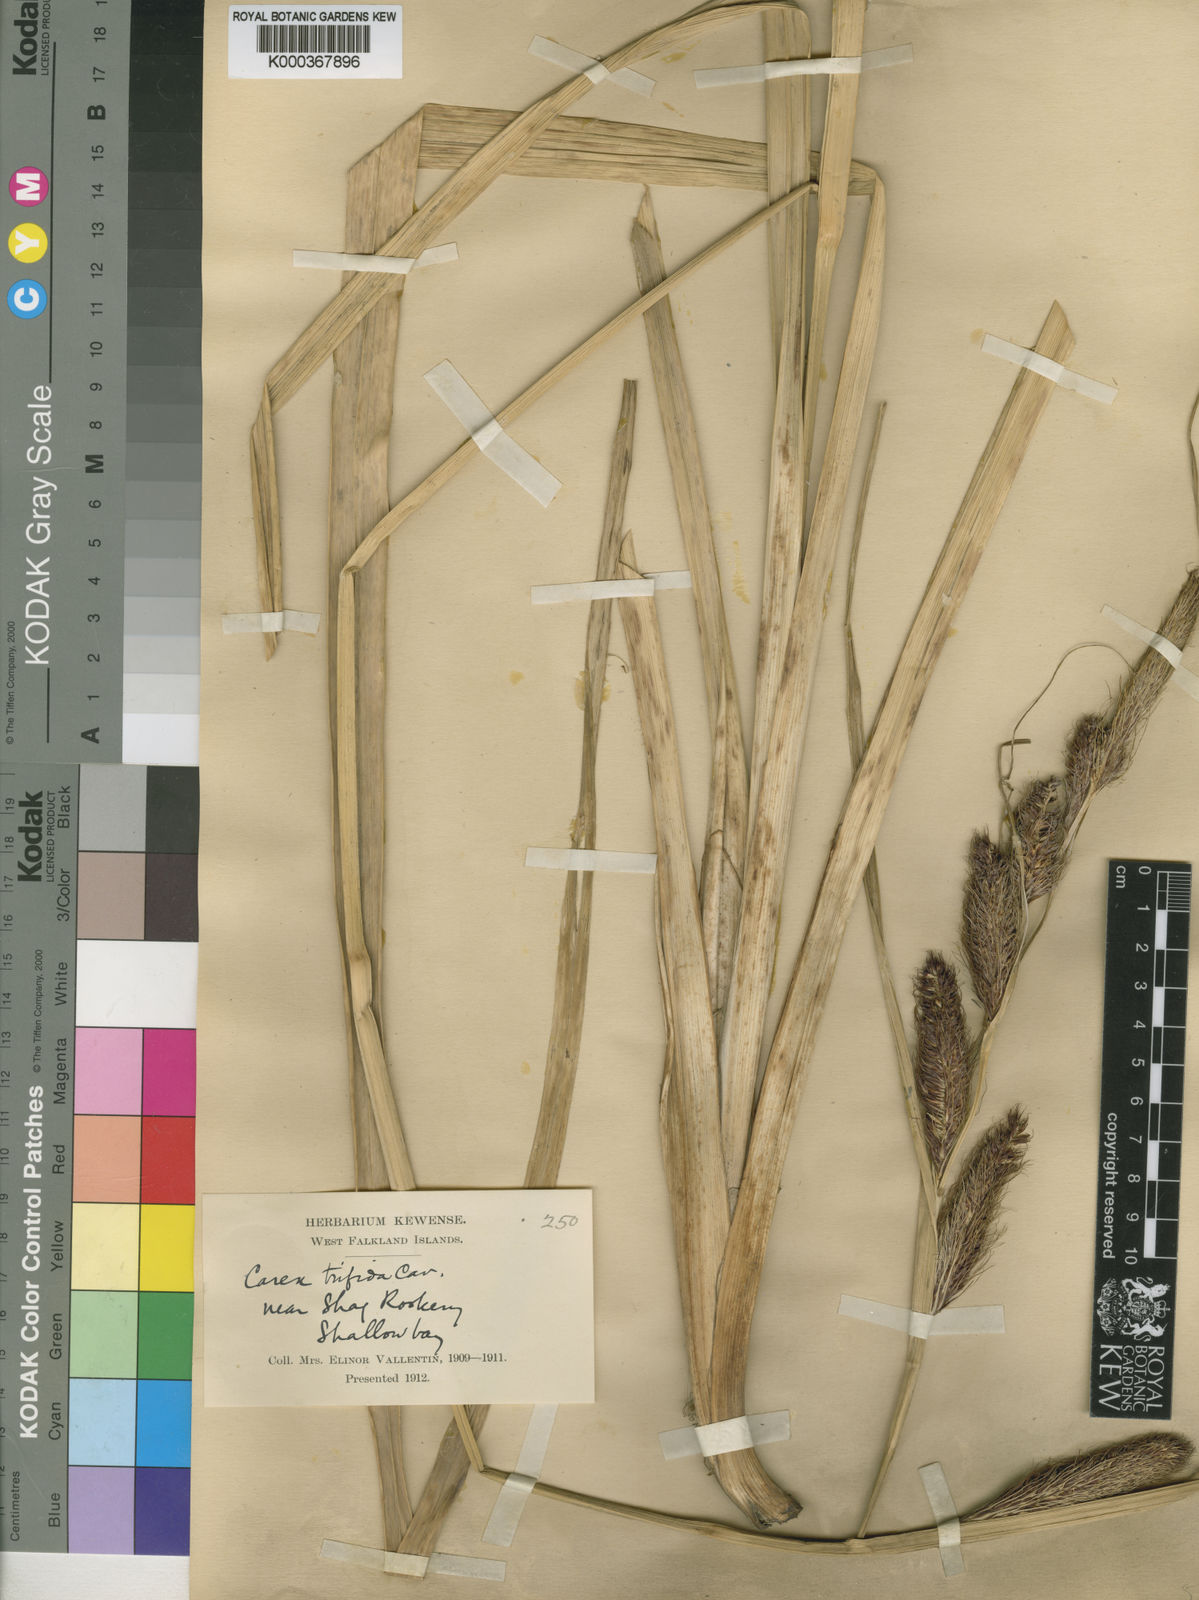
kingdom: Plantae
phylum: Tracheophyta
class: Liliopsida
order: Poales
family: Cyperaceae
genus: Carex
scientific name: Carex trifida
